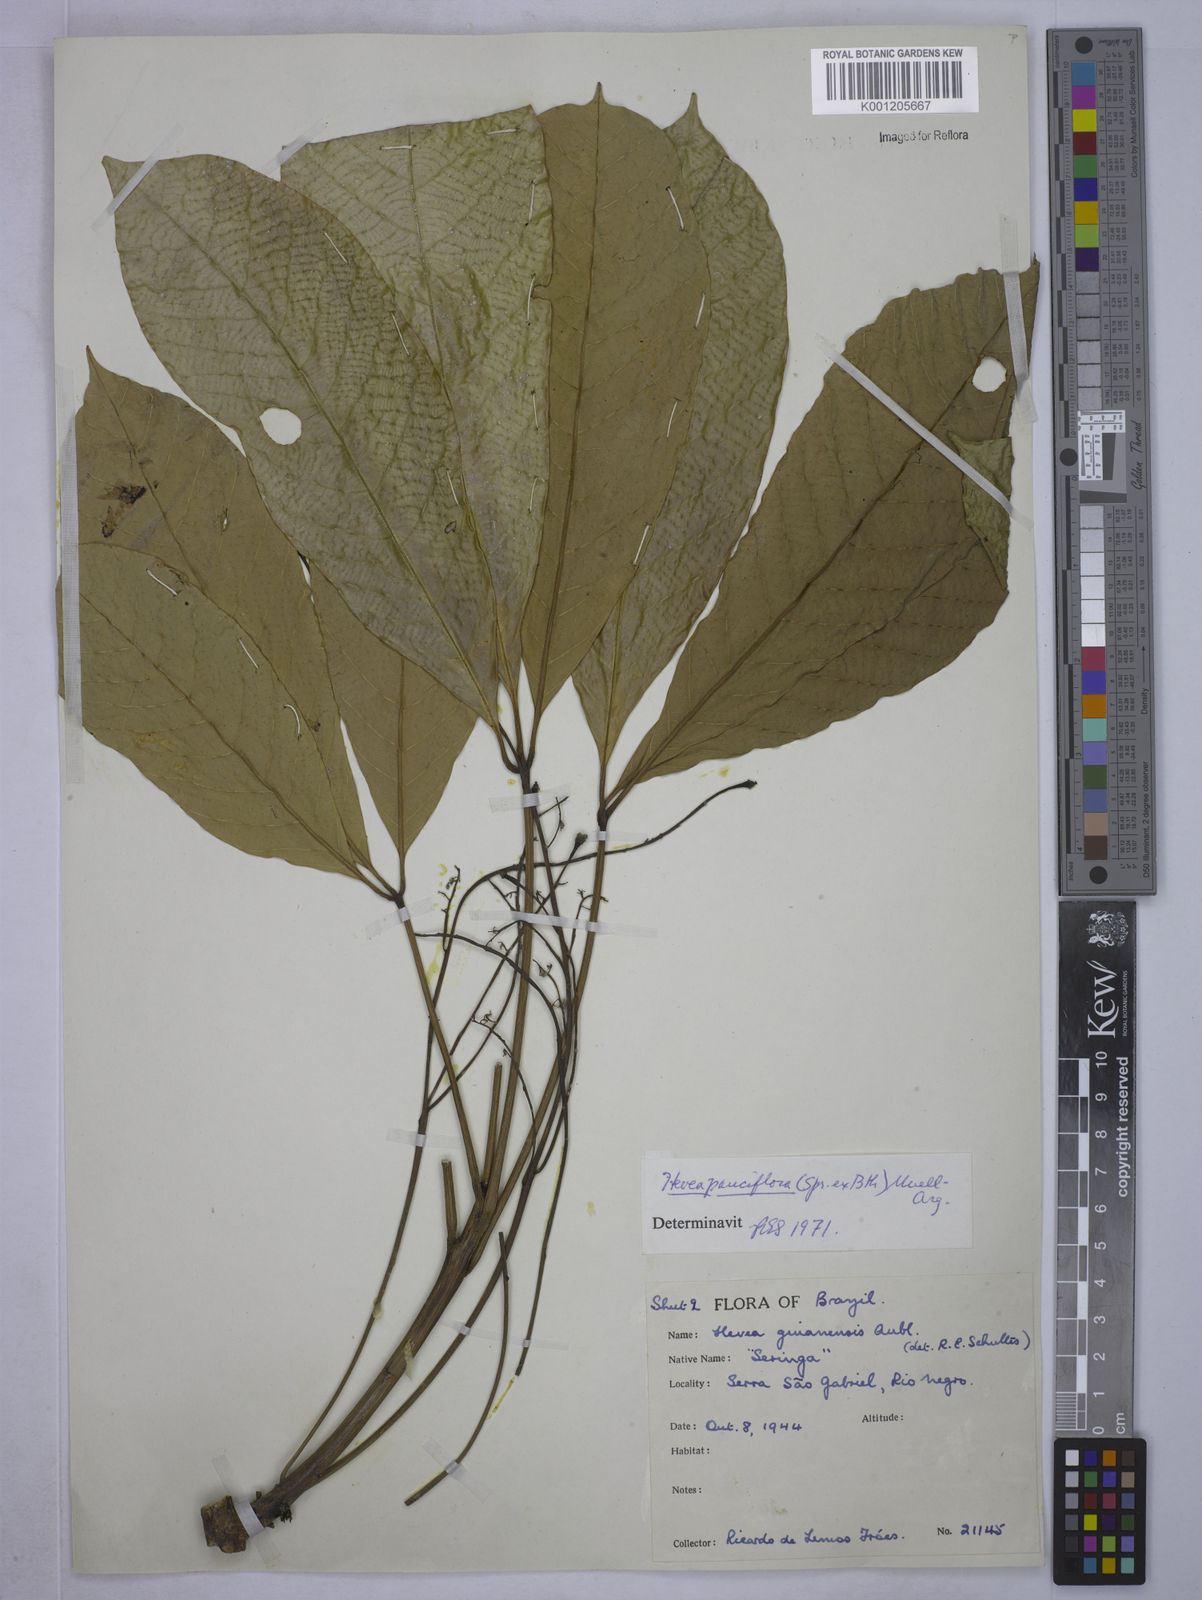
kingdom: Plantae
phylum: Tracheophyta
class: Magnoliopsida
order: Malpighiales
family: Euphorbiaceae
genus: Hevea
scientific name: Hevea pauciflora
